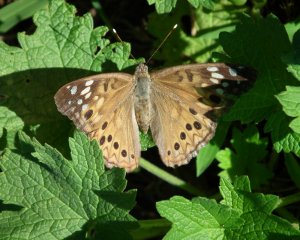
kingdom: Animalia
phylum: Arthropoda
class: Insecta
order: Lepidoptera
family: Nymphalidae
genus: Asterocampa
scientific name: Asterocampa celtis
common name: Hackberry Emperor
